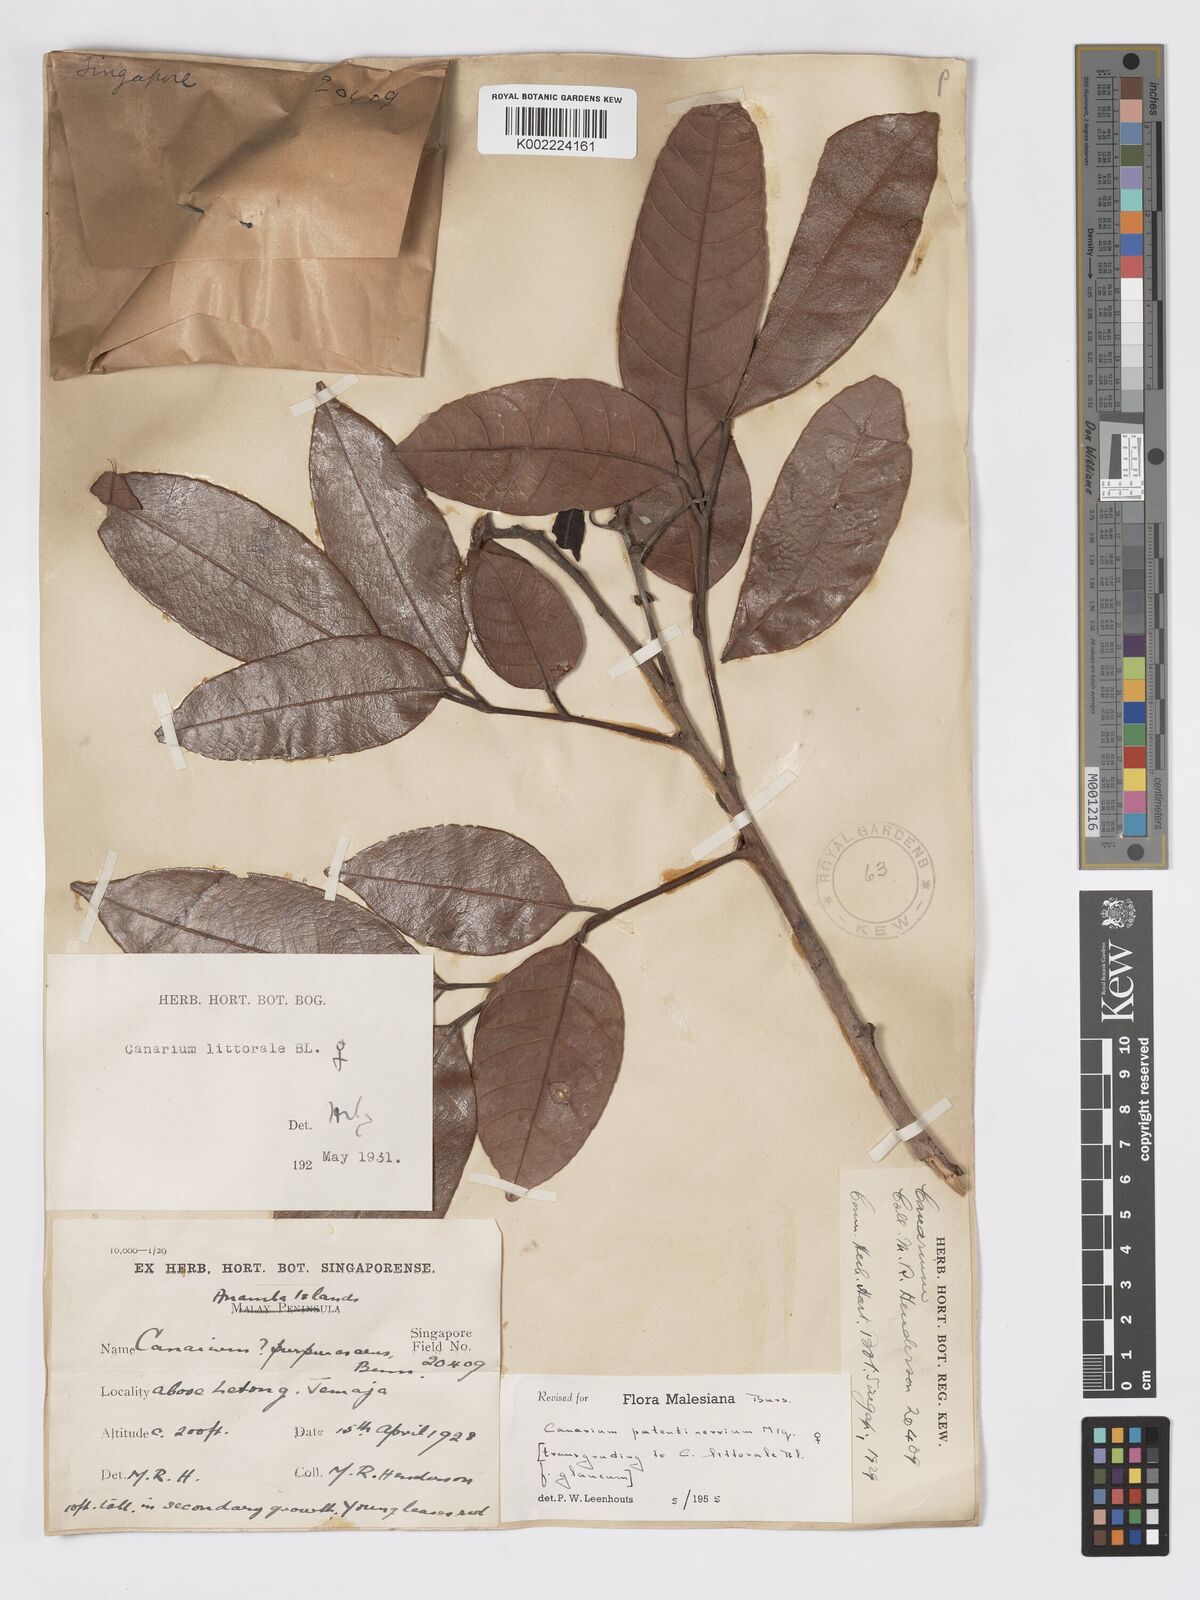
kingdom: Plantae
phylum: Tracheophyta
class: Magnoliopsida
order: Sapindales
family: Burseraceae
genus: Canarium
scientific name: Canarium patentinervium
